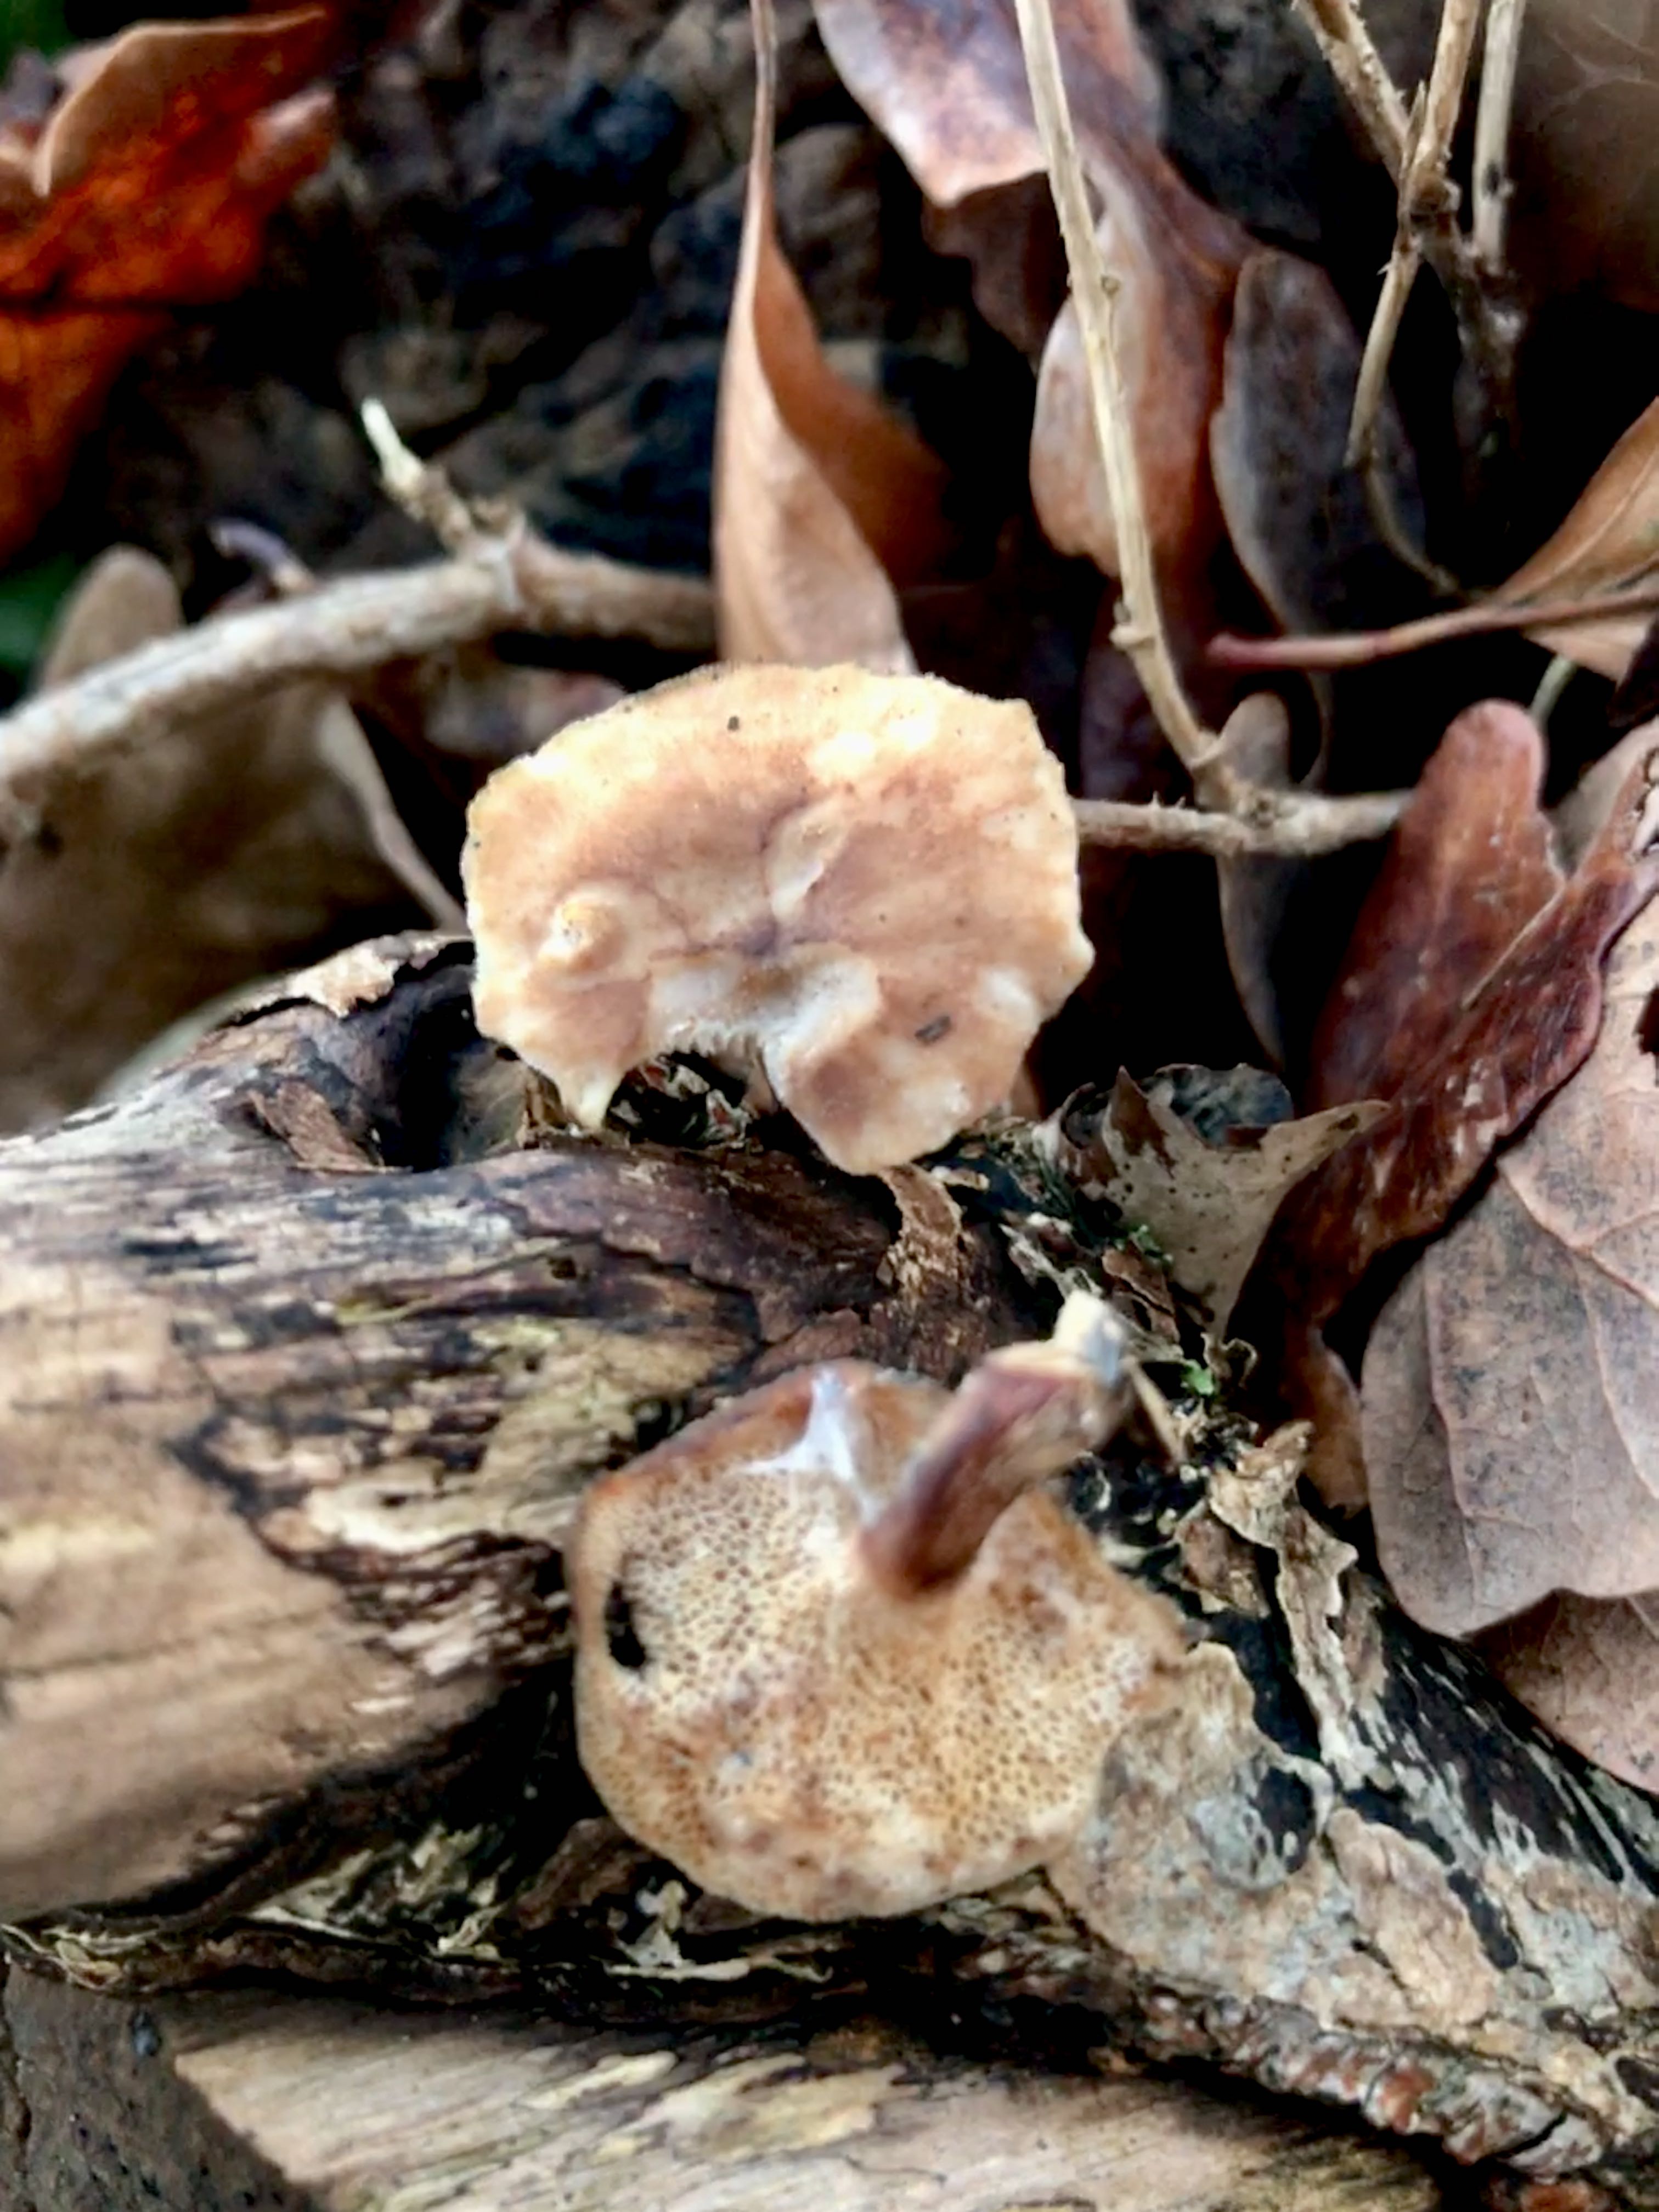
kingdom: Fungi
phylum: Basidiomycota
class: Agaricomycetes
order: Polyporales
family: Polyporaceae
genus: Lentinus
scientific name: Lentinus brumalis
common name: vinter-stilkporesvamp
